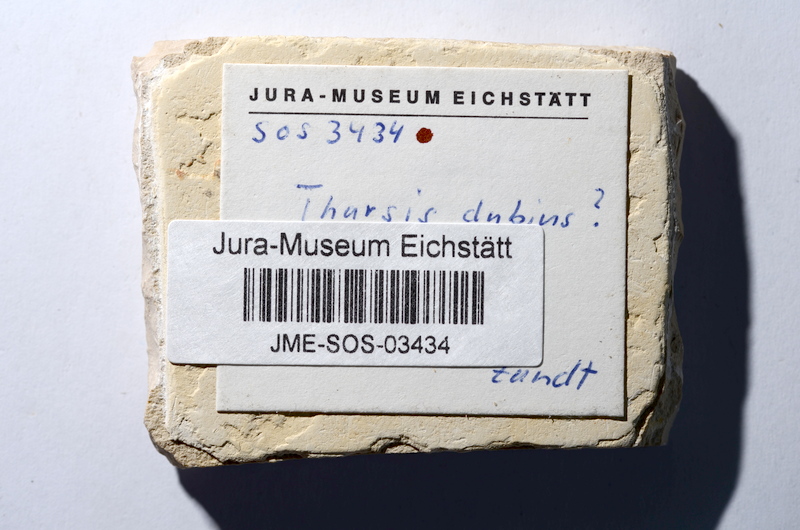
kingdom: Animalia
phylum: Chordata
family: Ascalaboidae
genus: Tharsis
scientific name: Tharsis dubius
